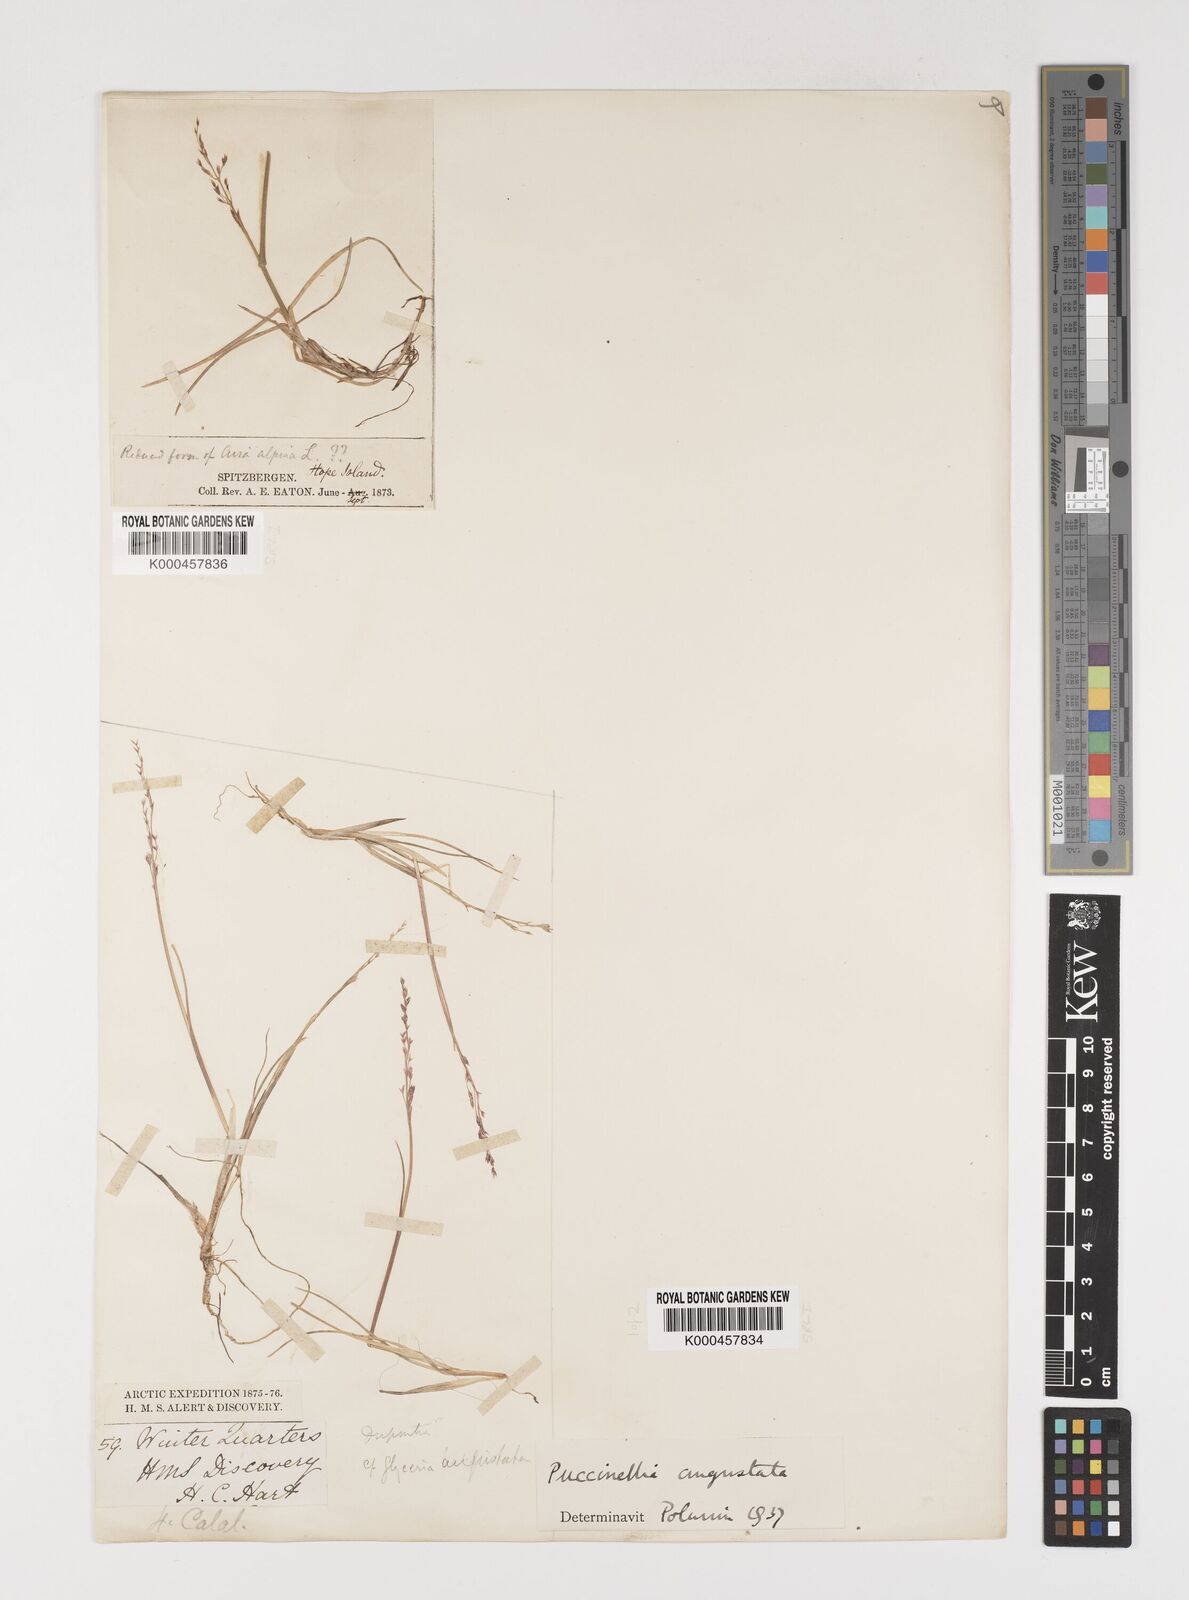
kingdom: Plantae
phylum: Tracheophyta
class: Liliopsida
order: Poales
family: Poaceae
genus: Puccinellia
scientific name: Puccinellia angustata
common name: Narrow alkaligrass
